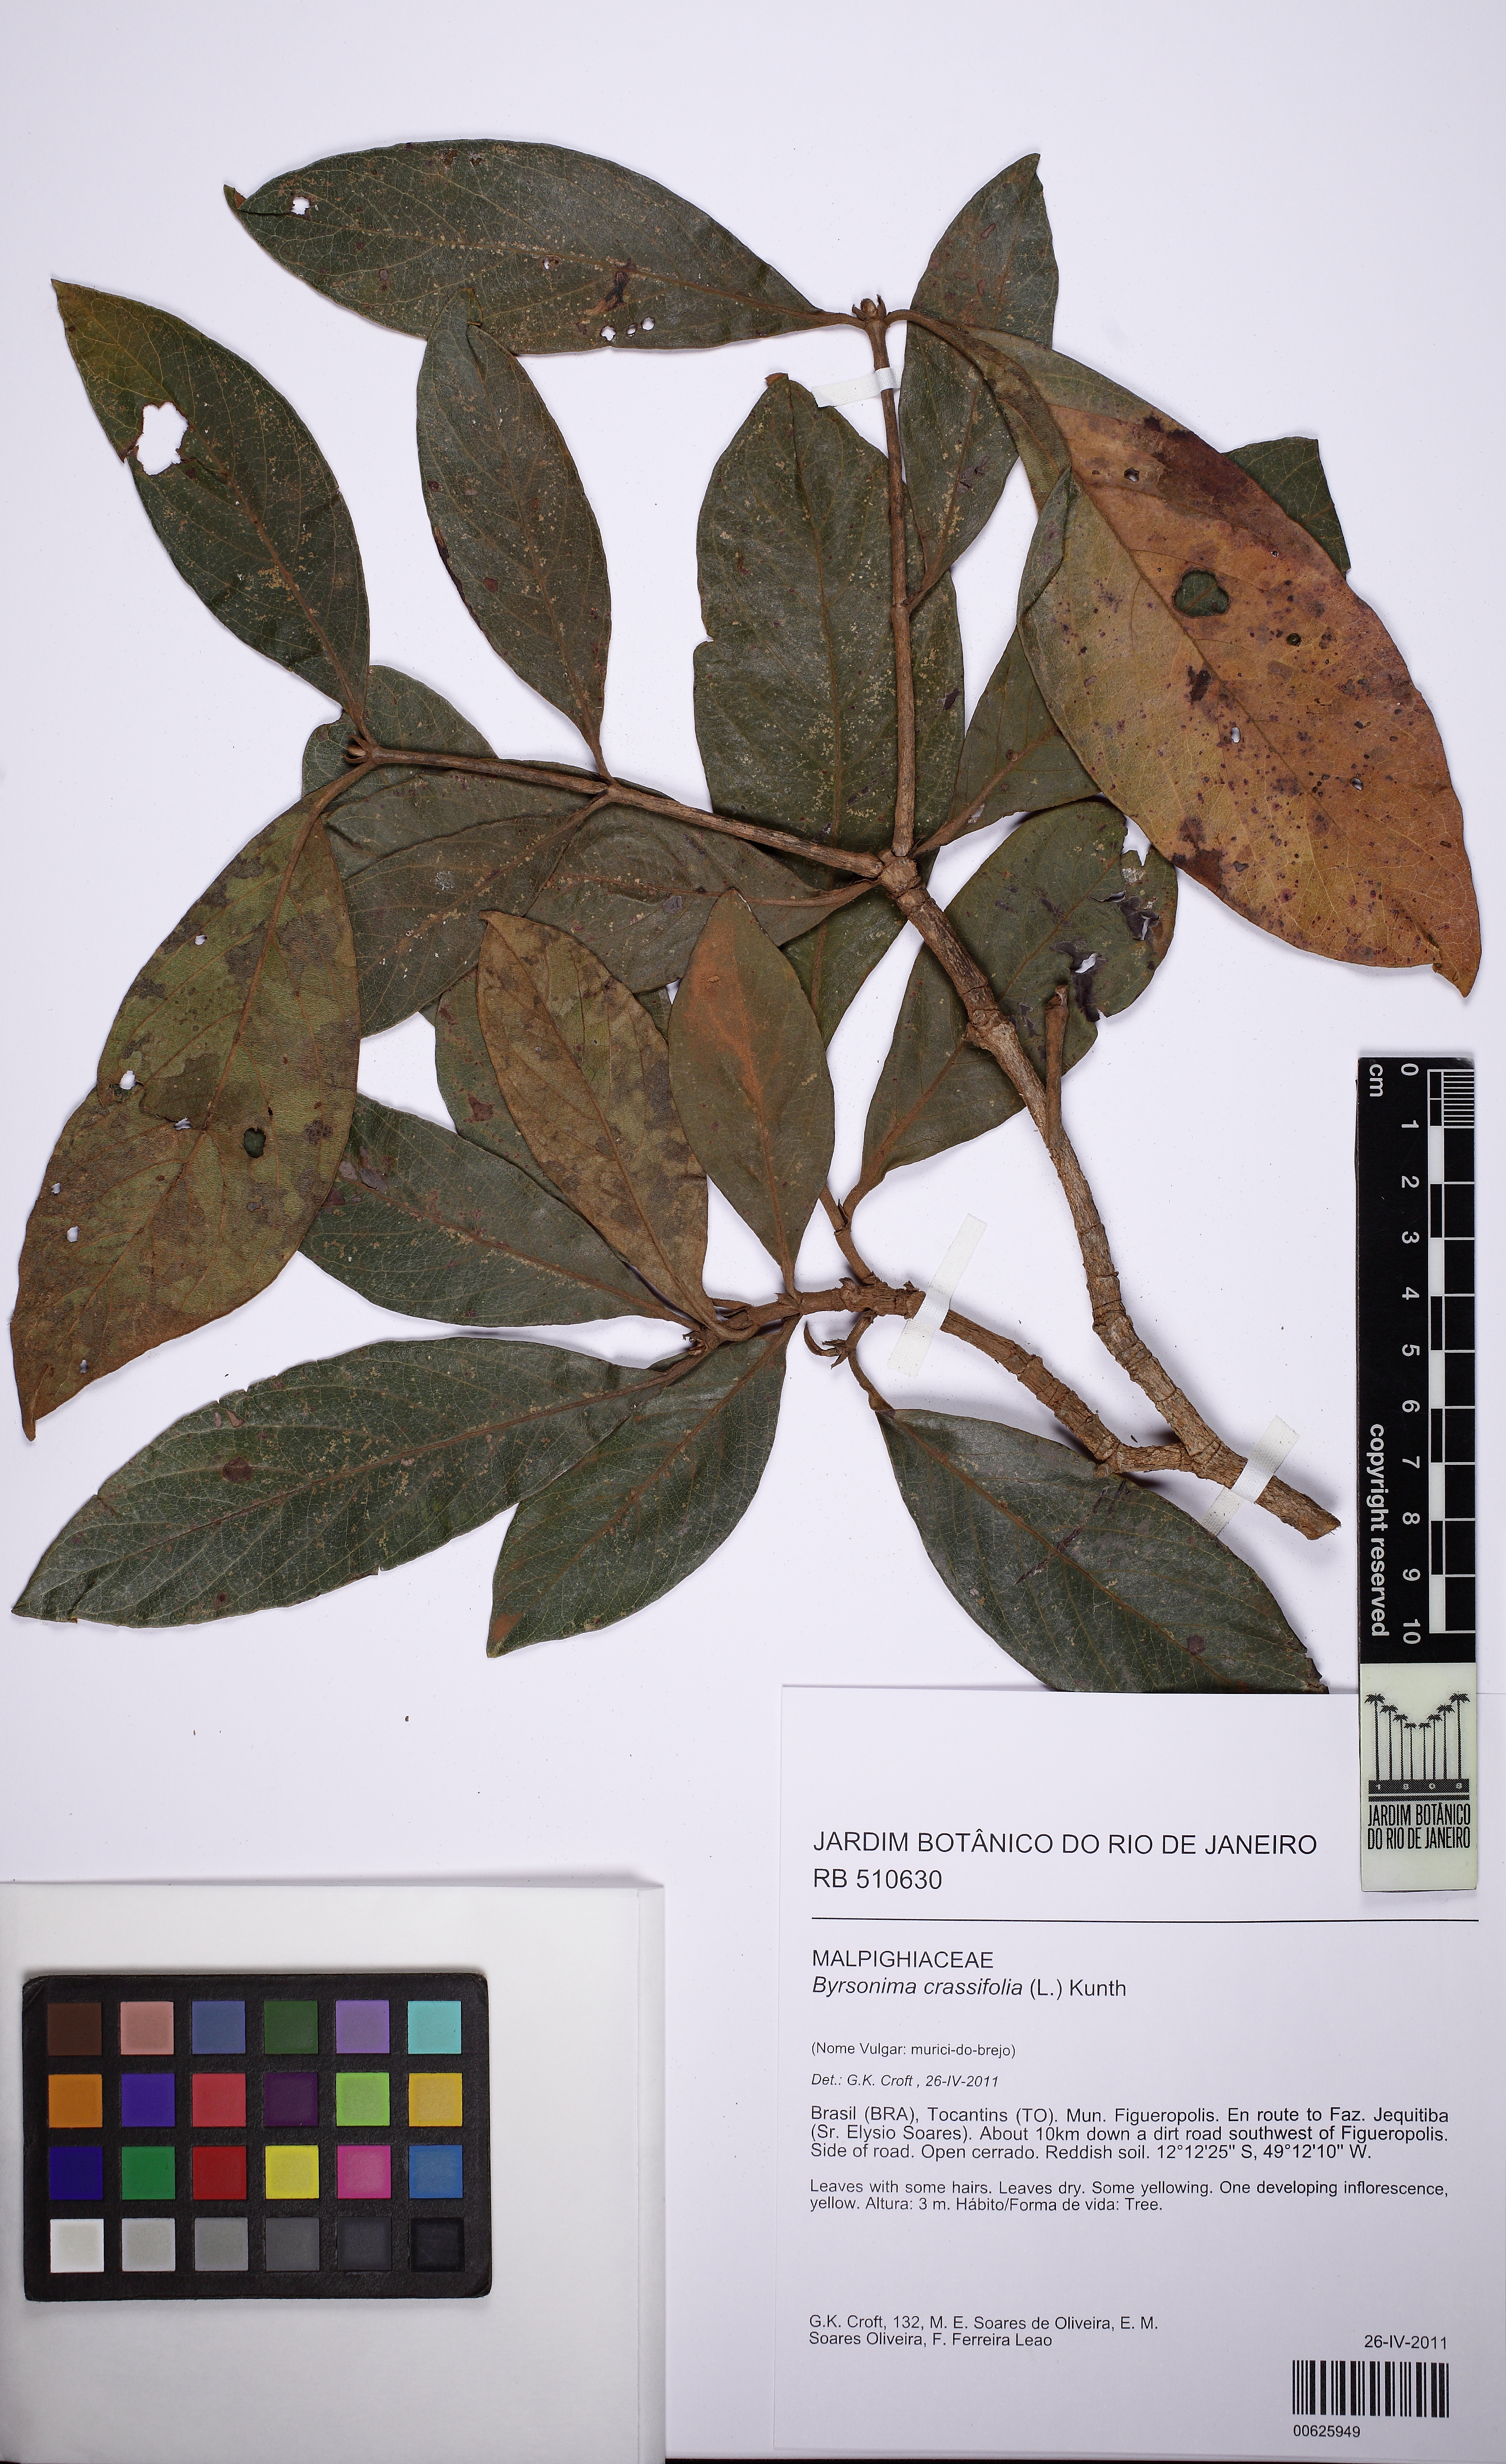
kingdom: Plantae
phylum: Tracheophyta
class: Magnoliopsida
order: Malpighiales
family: Malpighiaceae
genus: Byrsonima
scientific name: Byrsonima crassifolia
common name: Golden spoon
